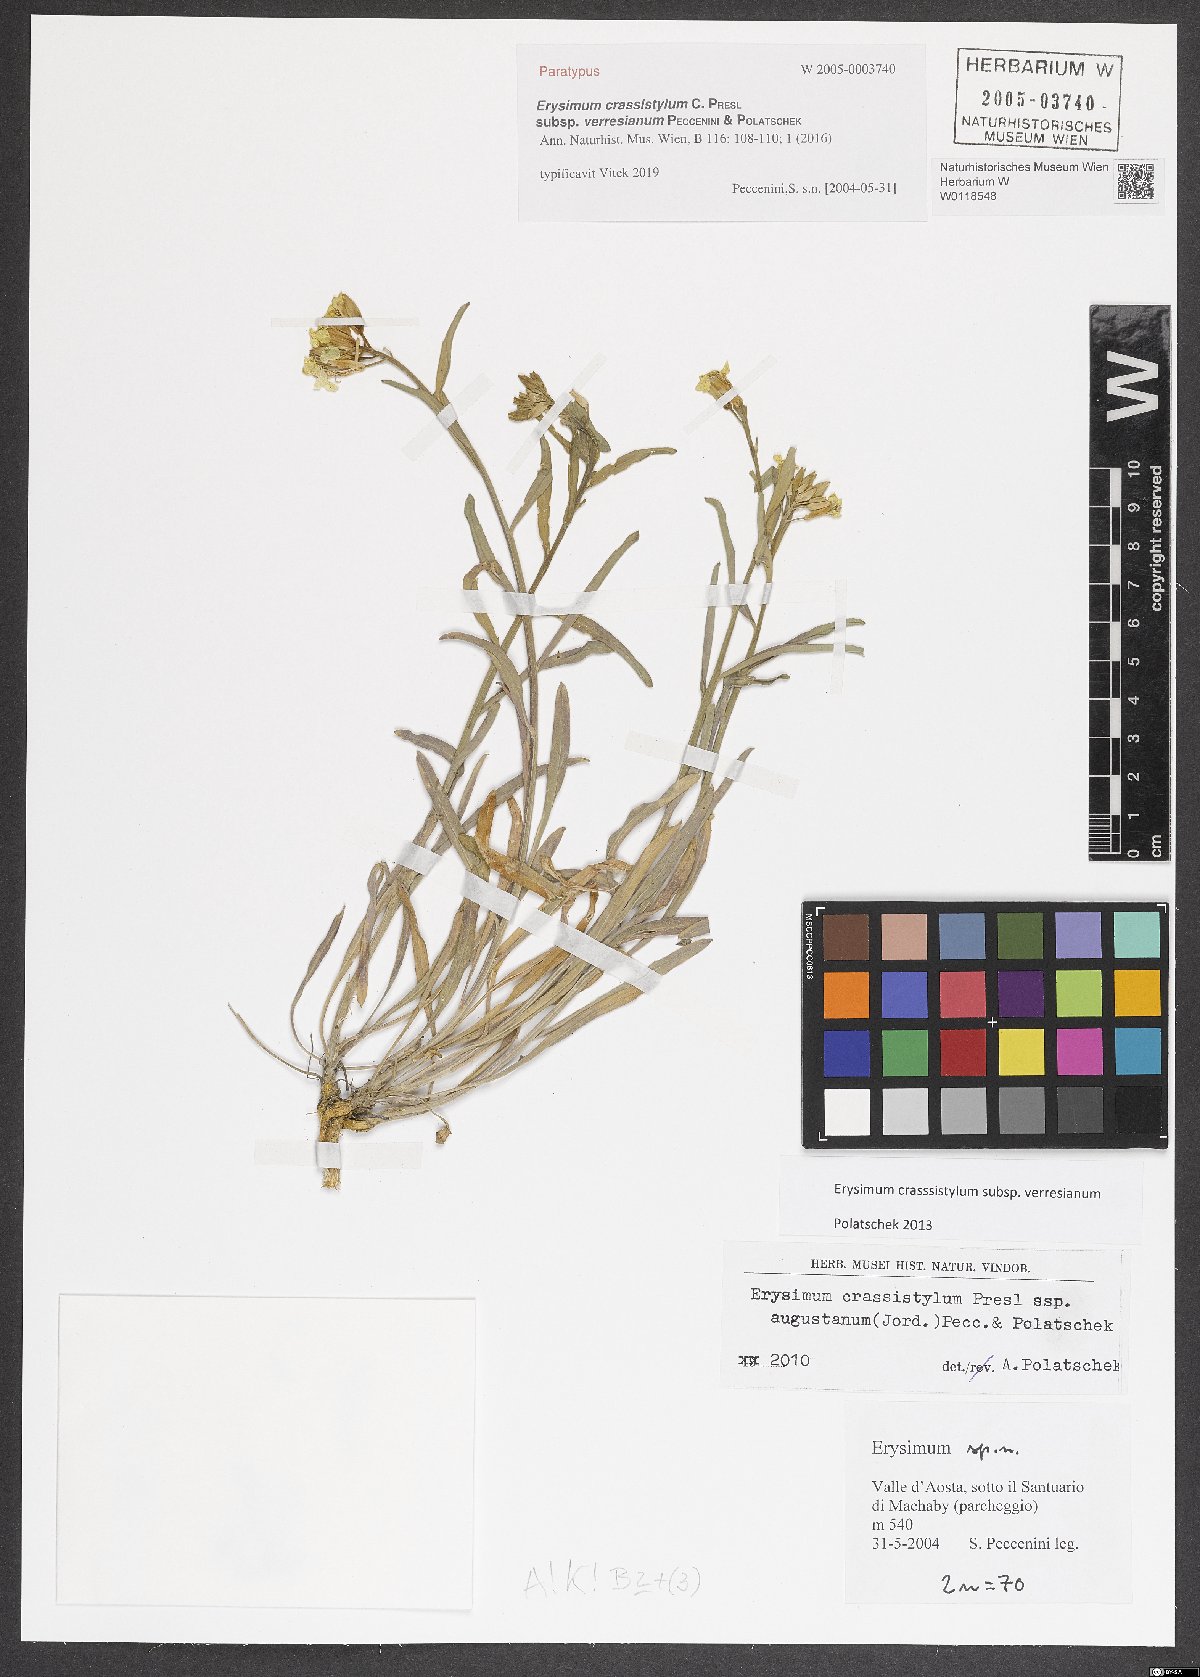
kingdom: Plantae
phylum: Tracheophyta
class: Magnoliopsida
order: Brassicales
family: Brassicaceae
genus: Erysimum
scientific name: Erysimum crassistylum
